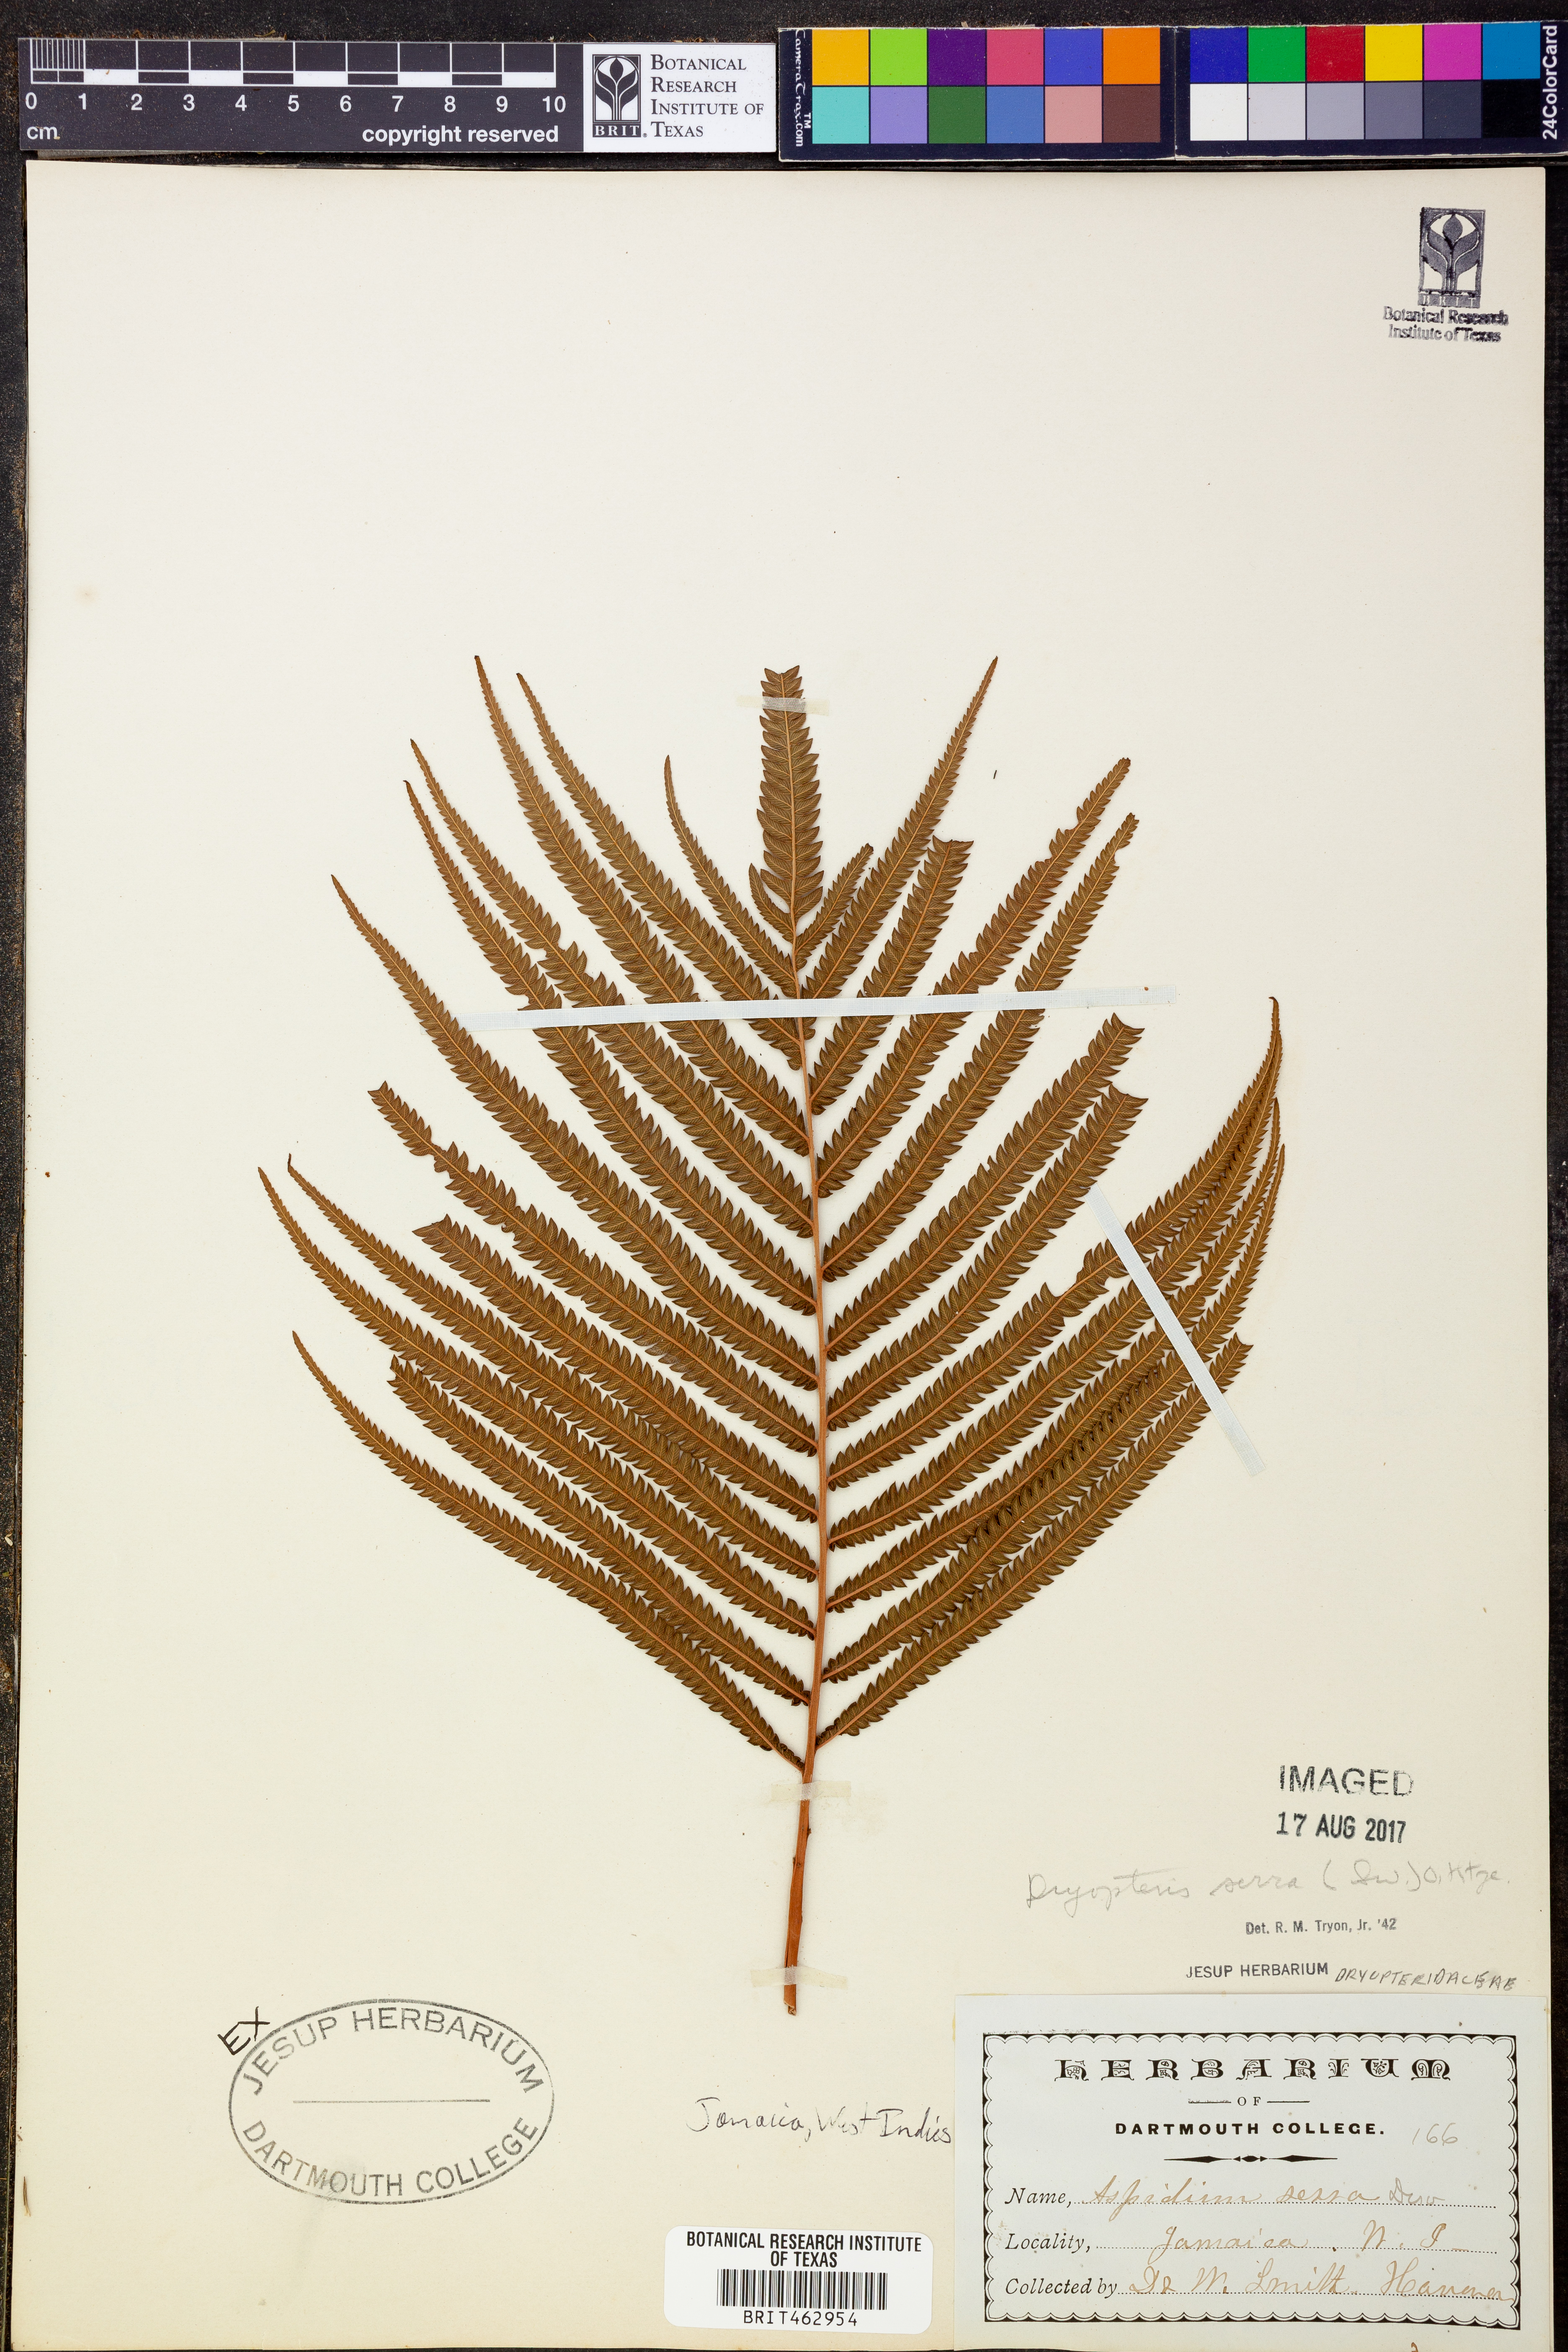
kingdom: Plantae
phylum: Tracheophyta
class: Polypodiopsida
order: Polypodiales
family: Thelypteridaceae
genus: Pelazoneuron
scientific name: Pelazoneuron serra
